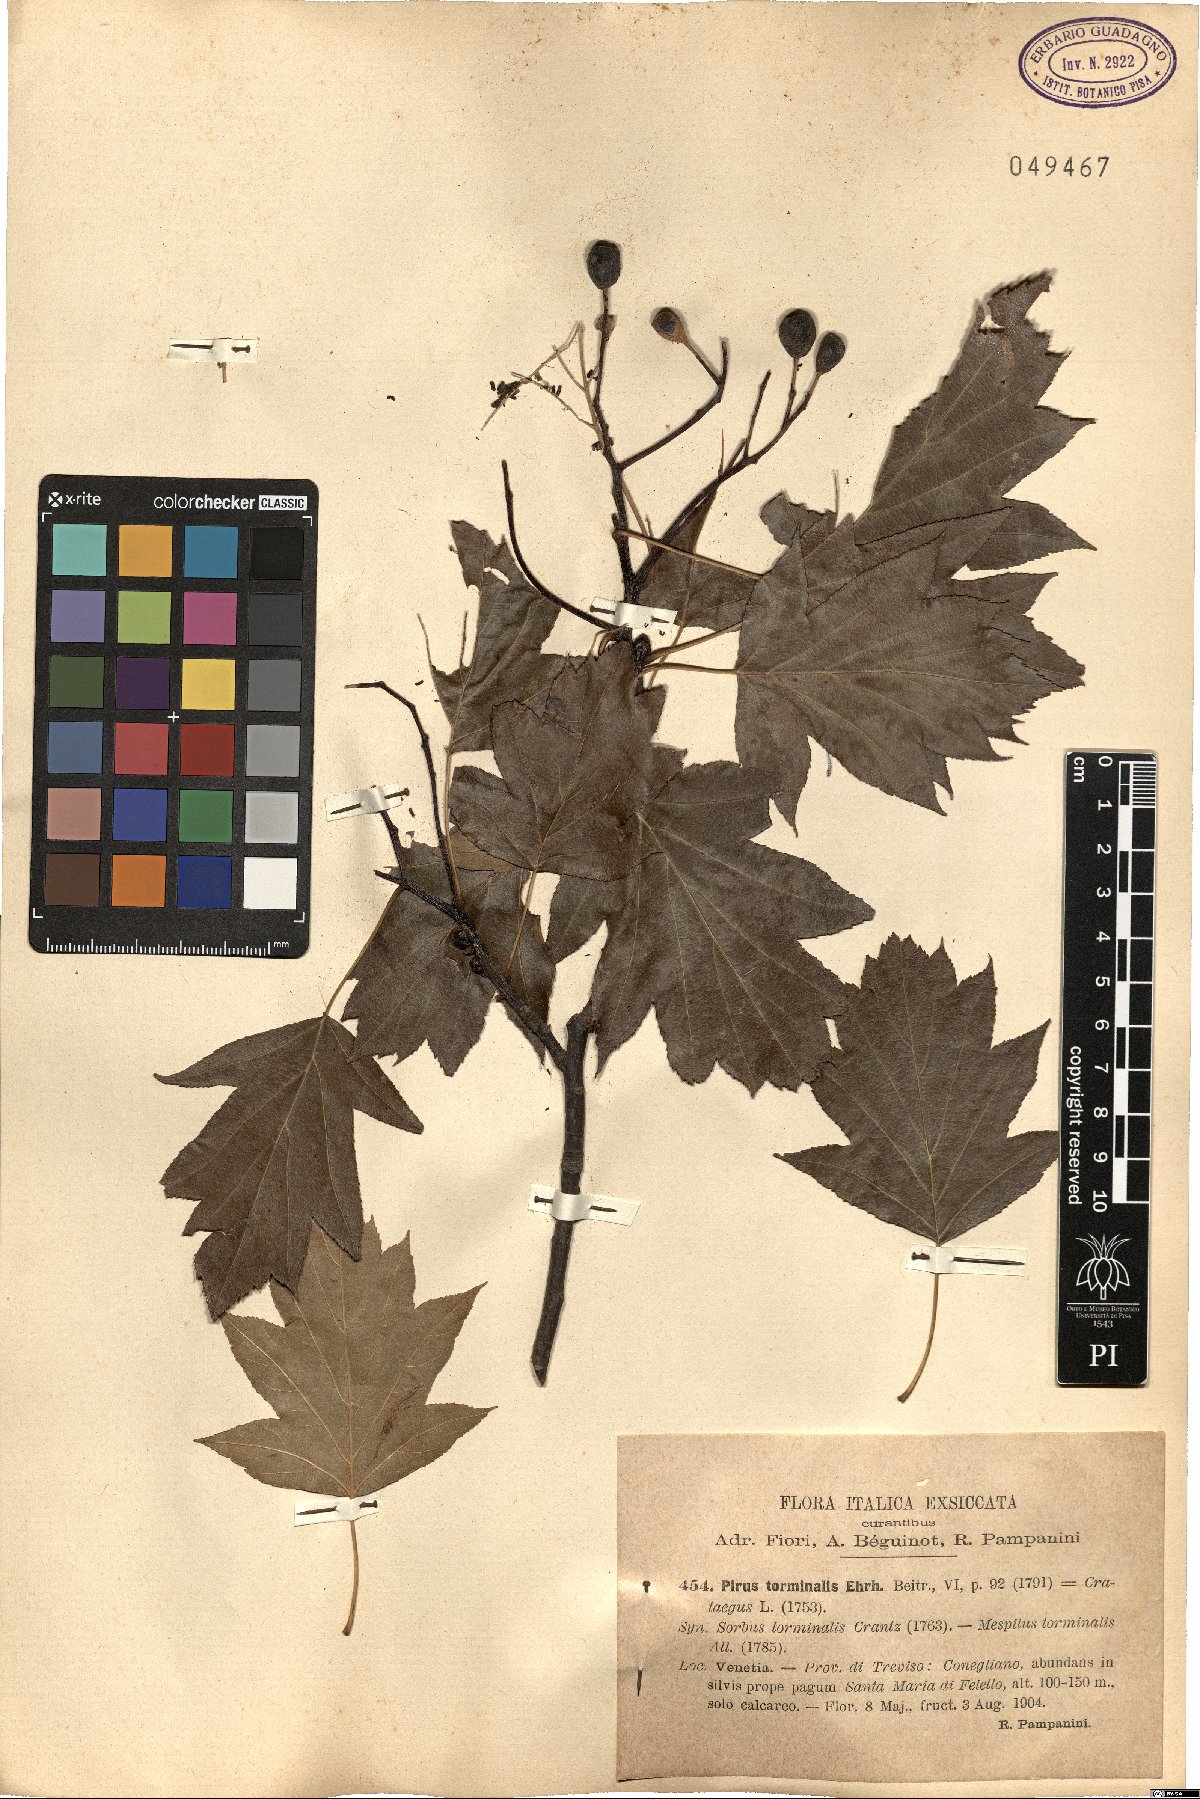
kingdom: Plantae
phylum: Tracheophyta
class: Magnoliopsida
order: Rosales
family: Rosaceae
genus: Torminalis
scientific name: Torminalis glaberrima
